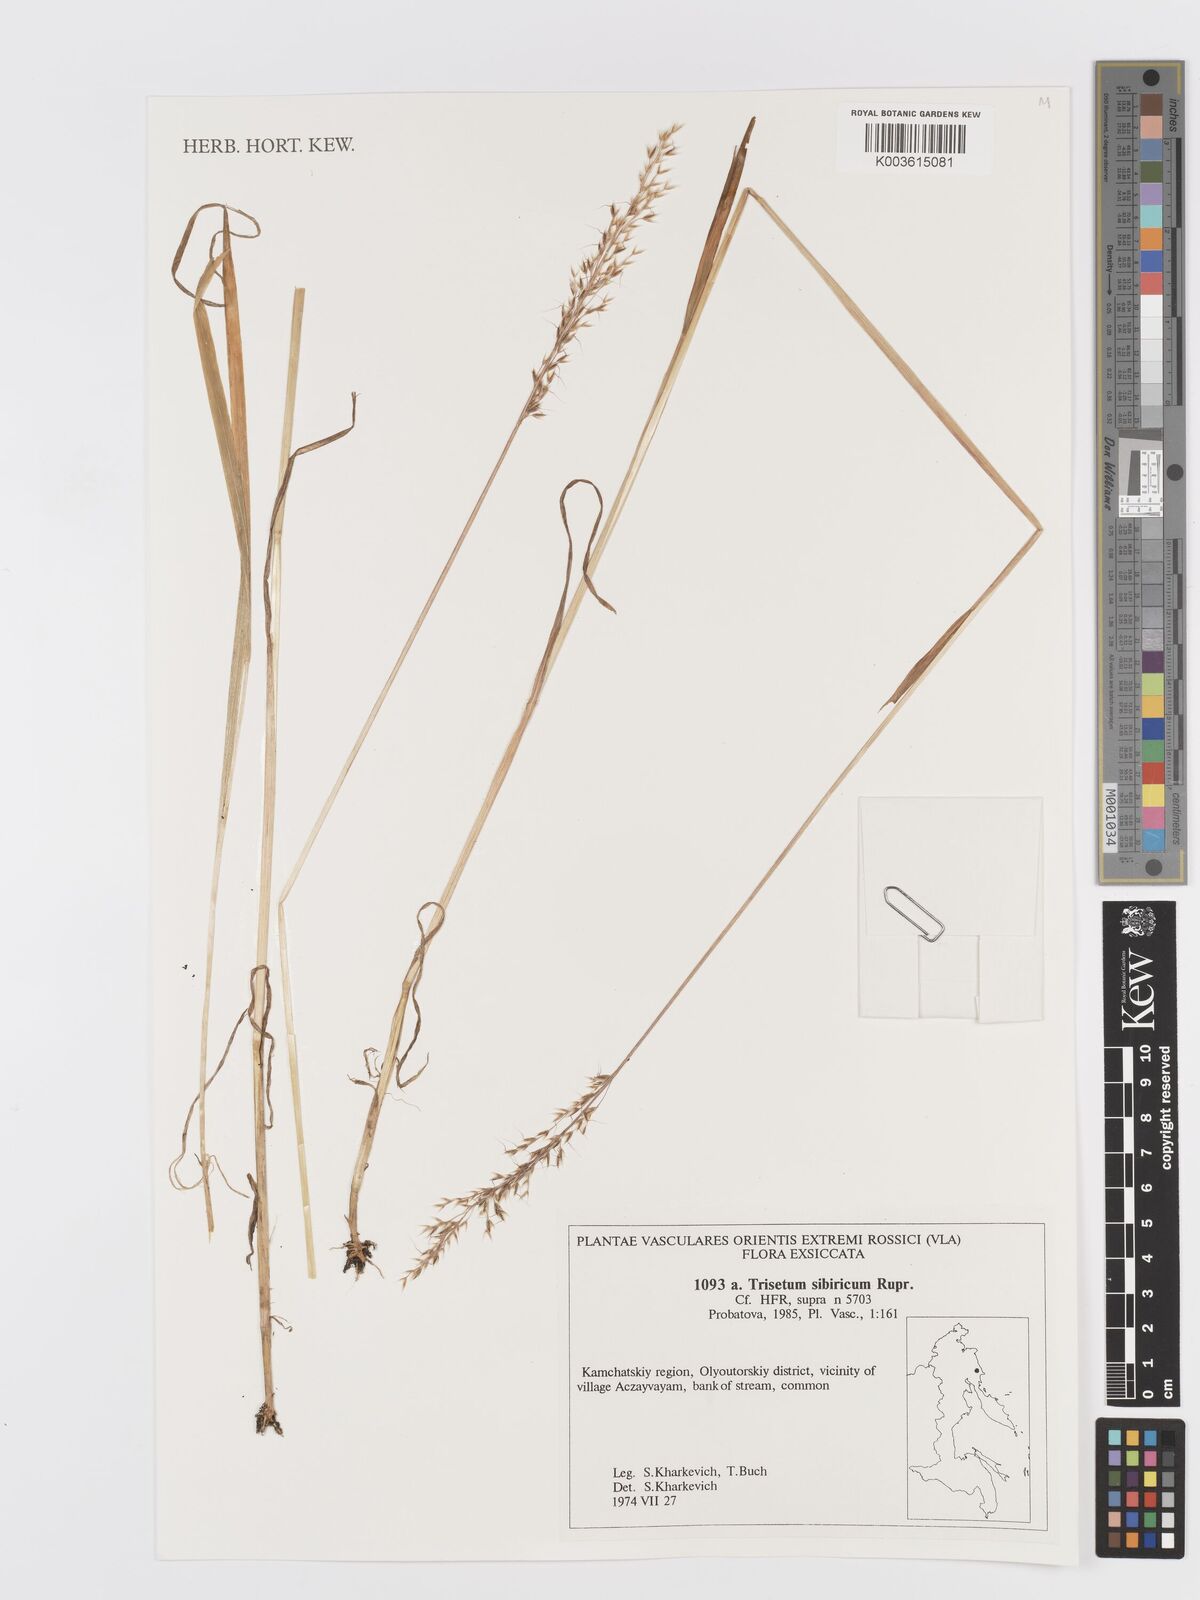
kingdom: Plantae
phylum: Tracheophyta
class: Liliopsida
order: Poales
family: Poaceae
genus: Sibirotrisetum
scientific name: Sibirotrisetum sibiricum
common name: Siberian false oat
